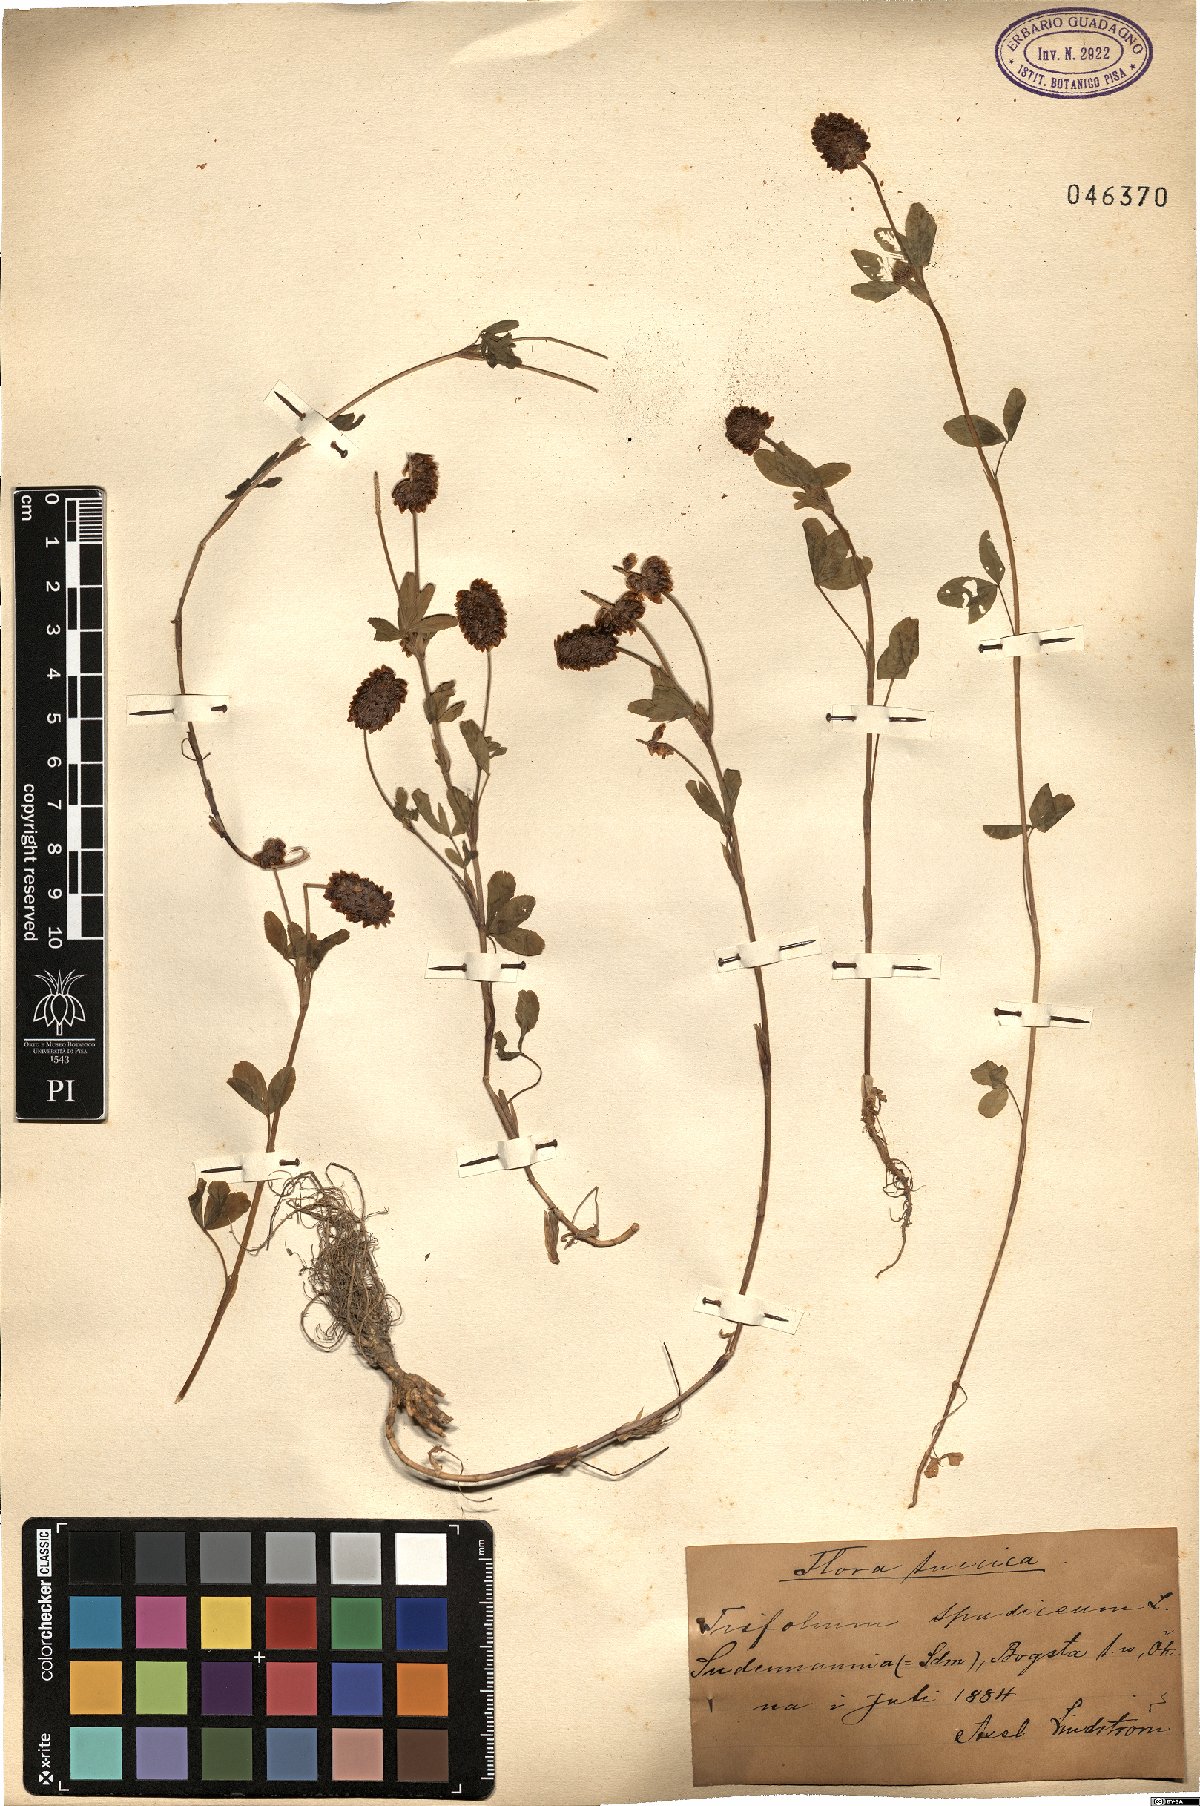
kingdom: Plantae
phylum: Tracheophyta
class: Magnoliopsida
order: Fabales
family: Fabaceae
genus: Trifolium
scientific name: Trifolium spadiceum
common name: Brown moor clover
